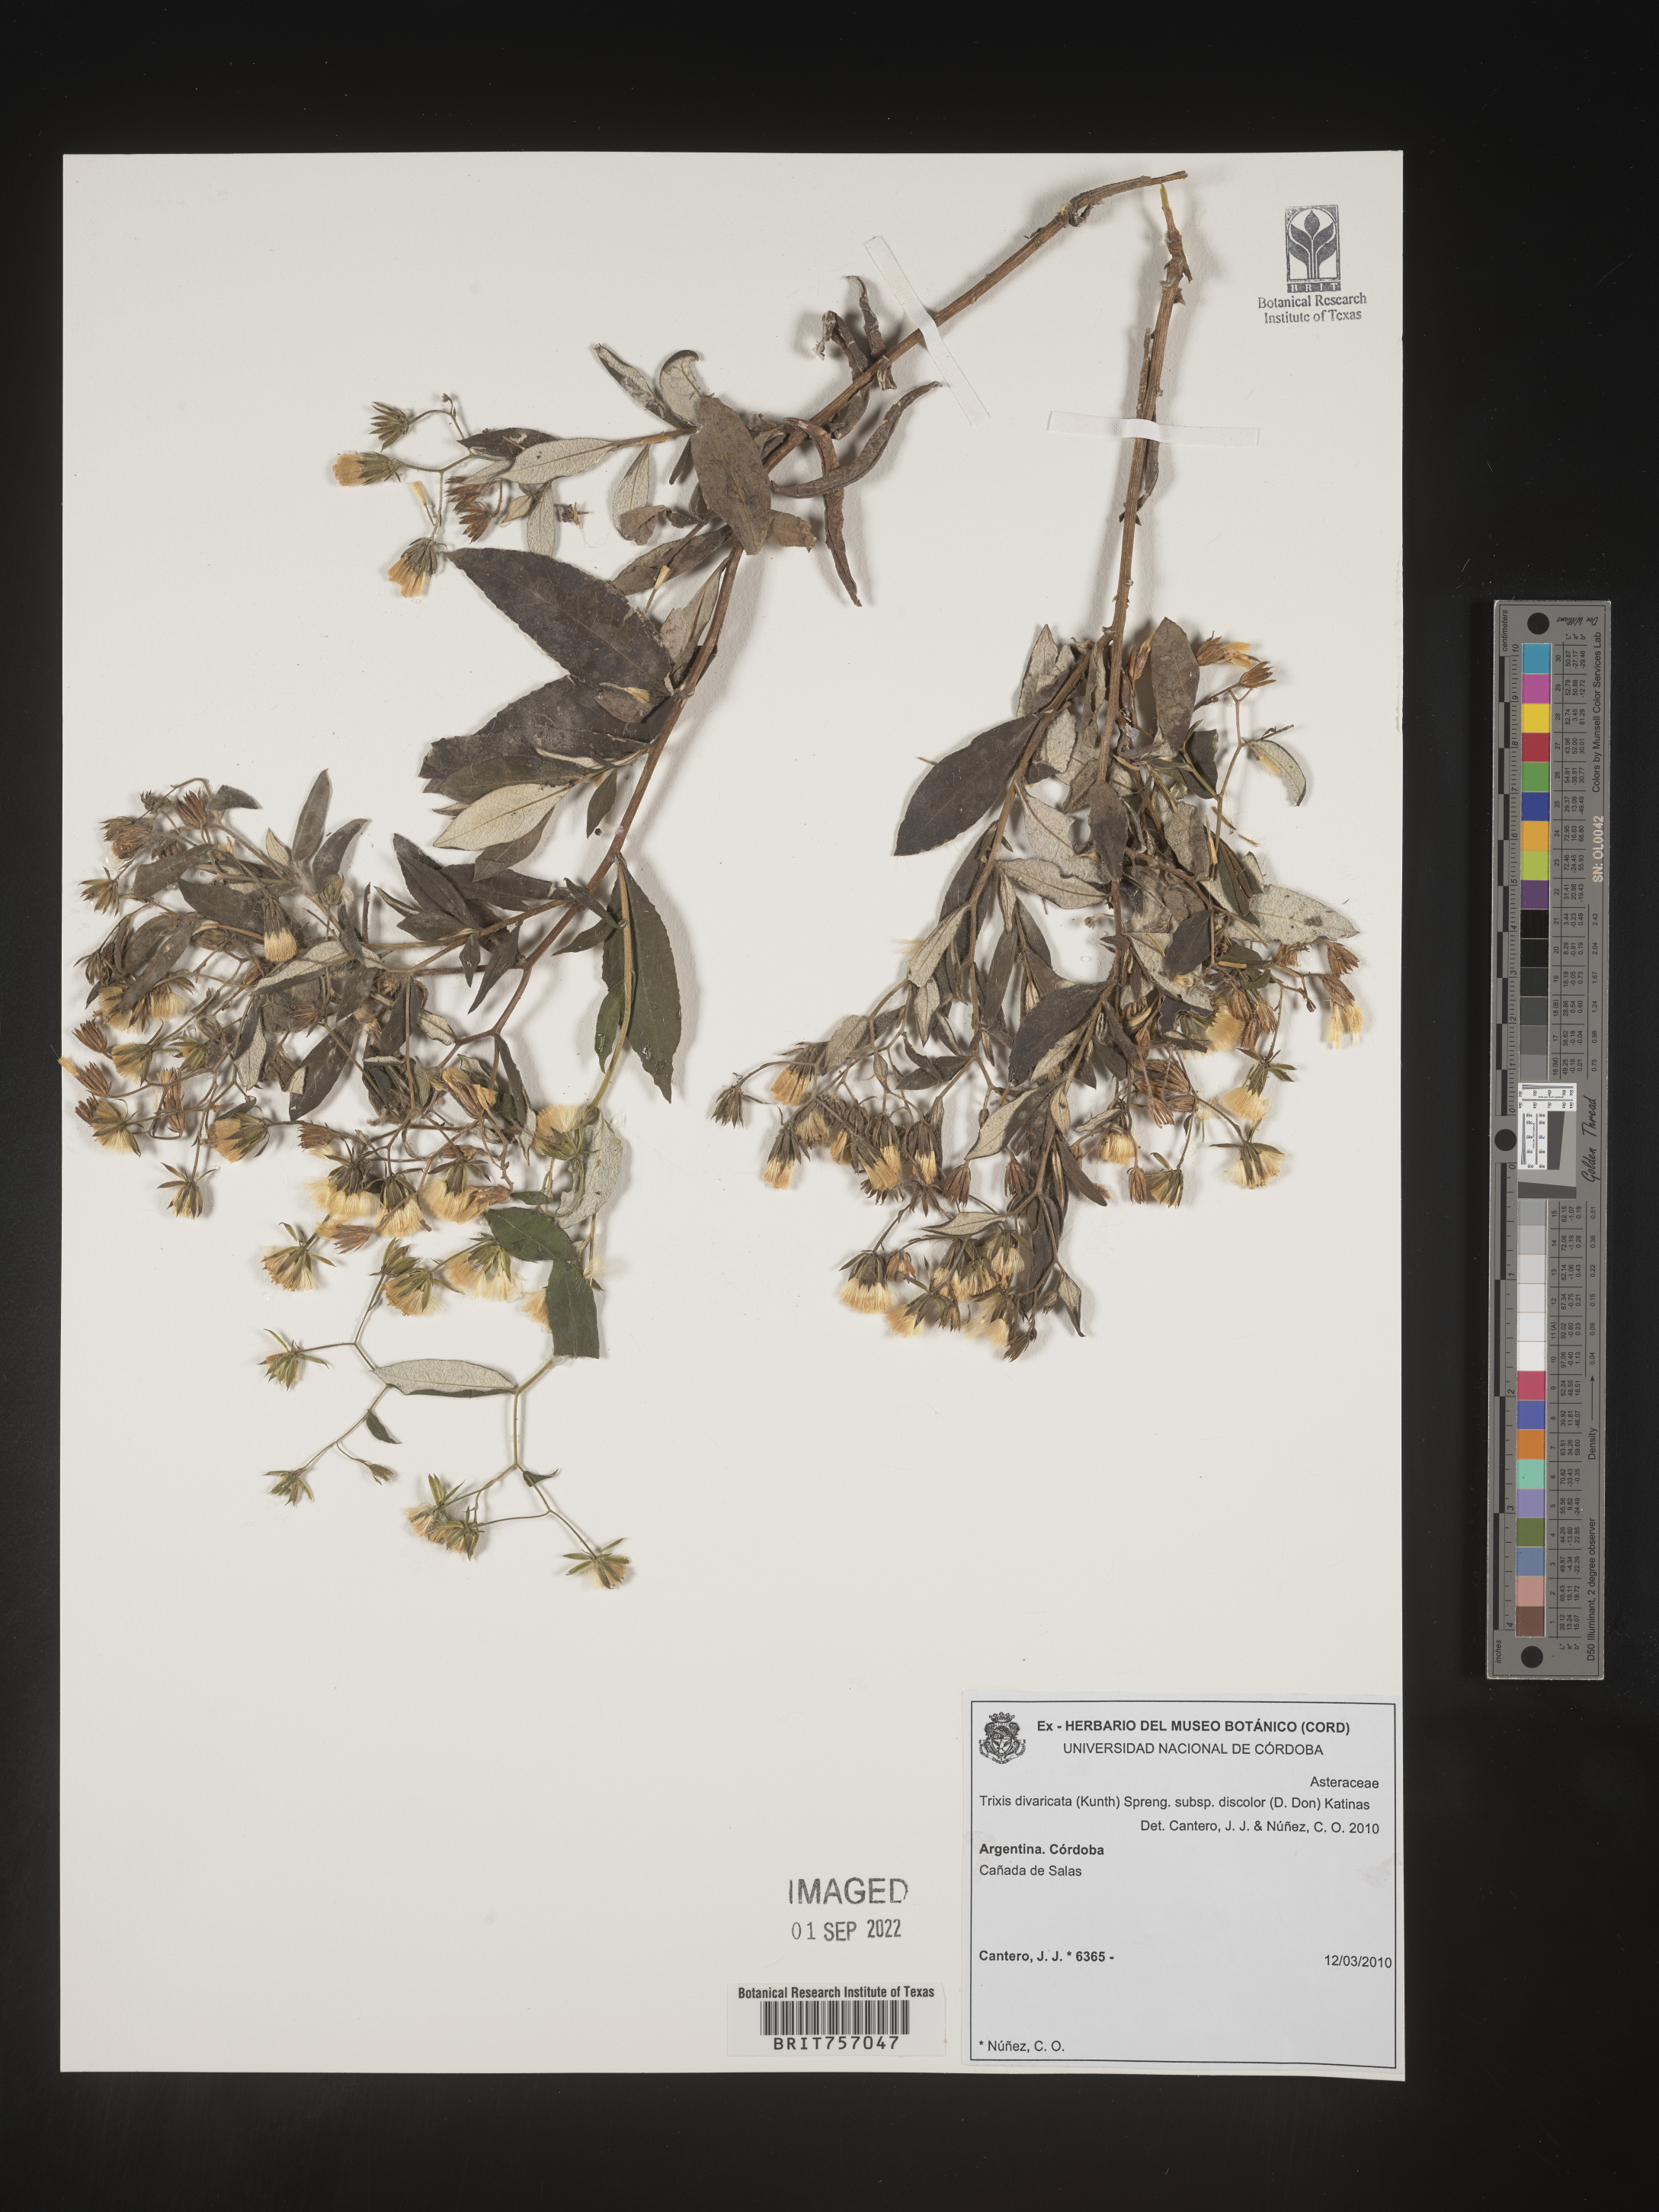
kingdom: Plantae
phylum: Tracheophyta
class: Magnoliopsida
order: Asterales
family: Asteraceae
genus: Trixis
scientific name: Trixis
